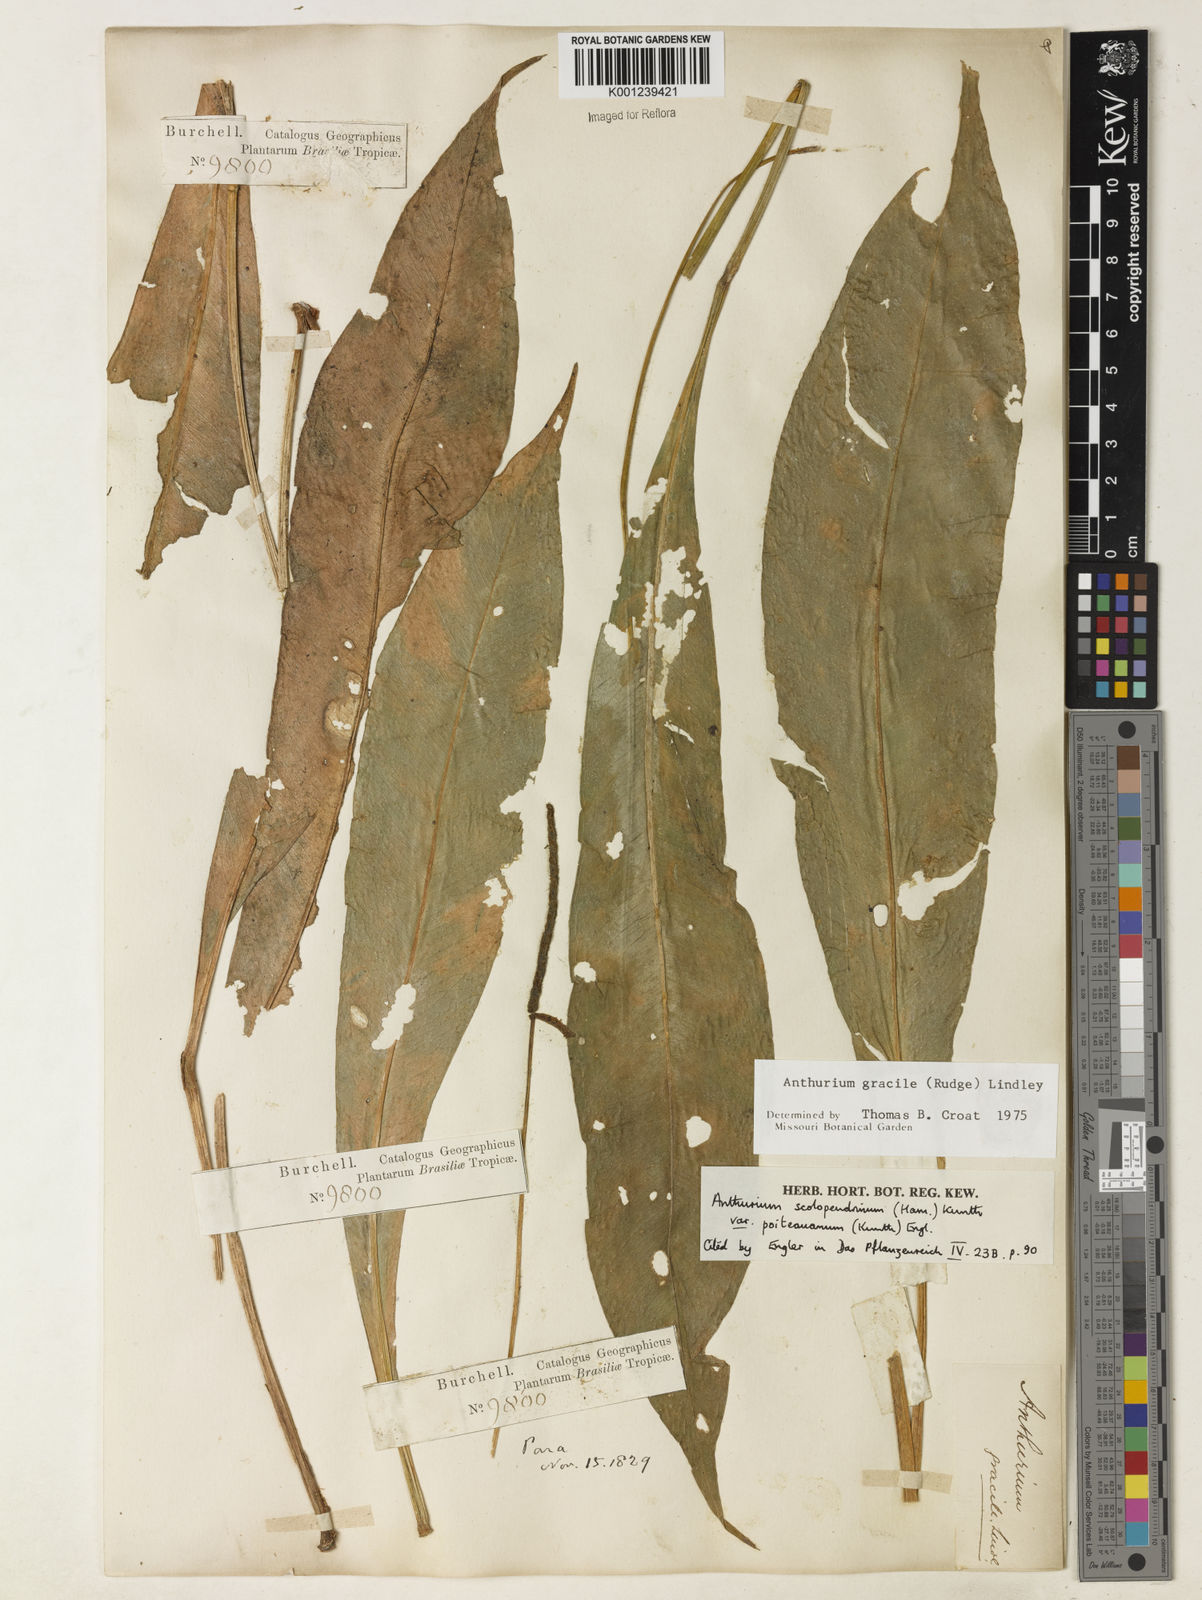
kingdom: Plantae
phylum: Tracheophyta
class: Liliopsida
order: Alismatales
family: Araceae
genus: Anthurium
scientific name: Anthurium gracile
